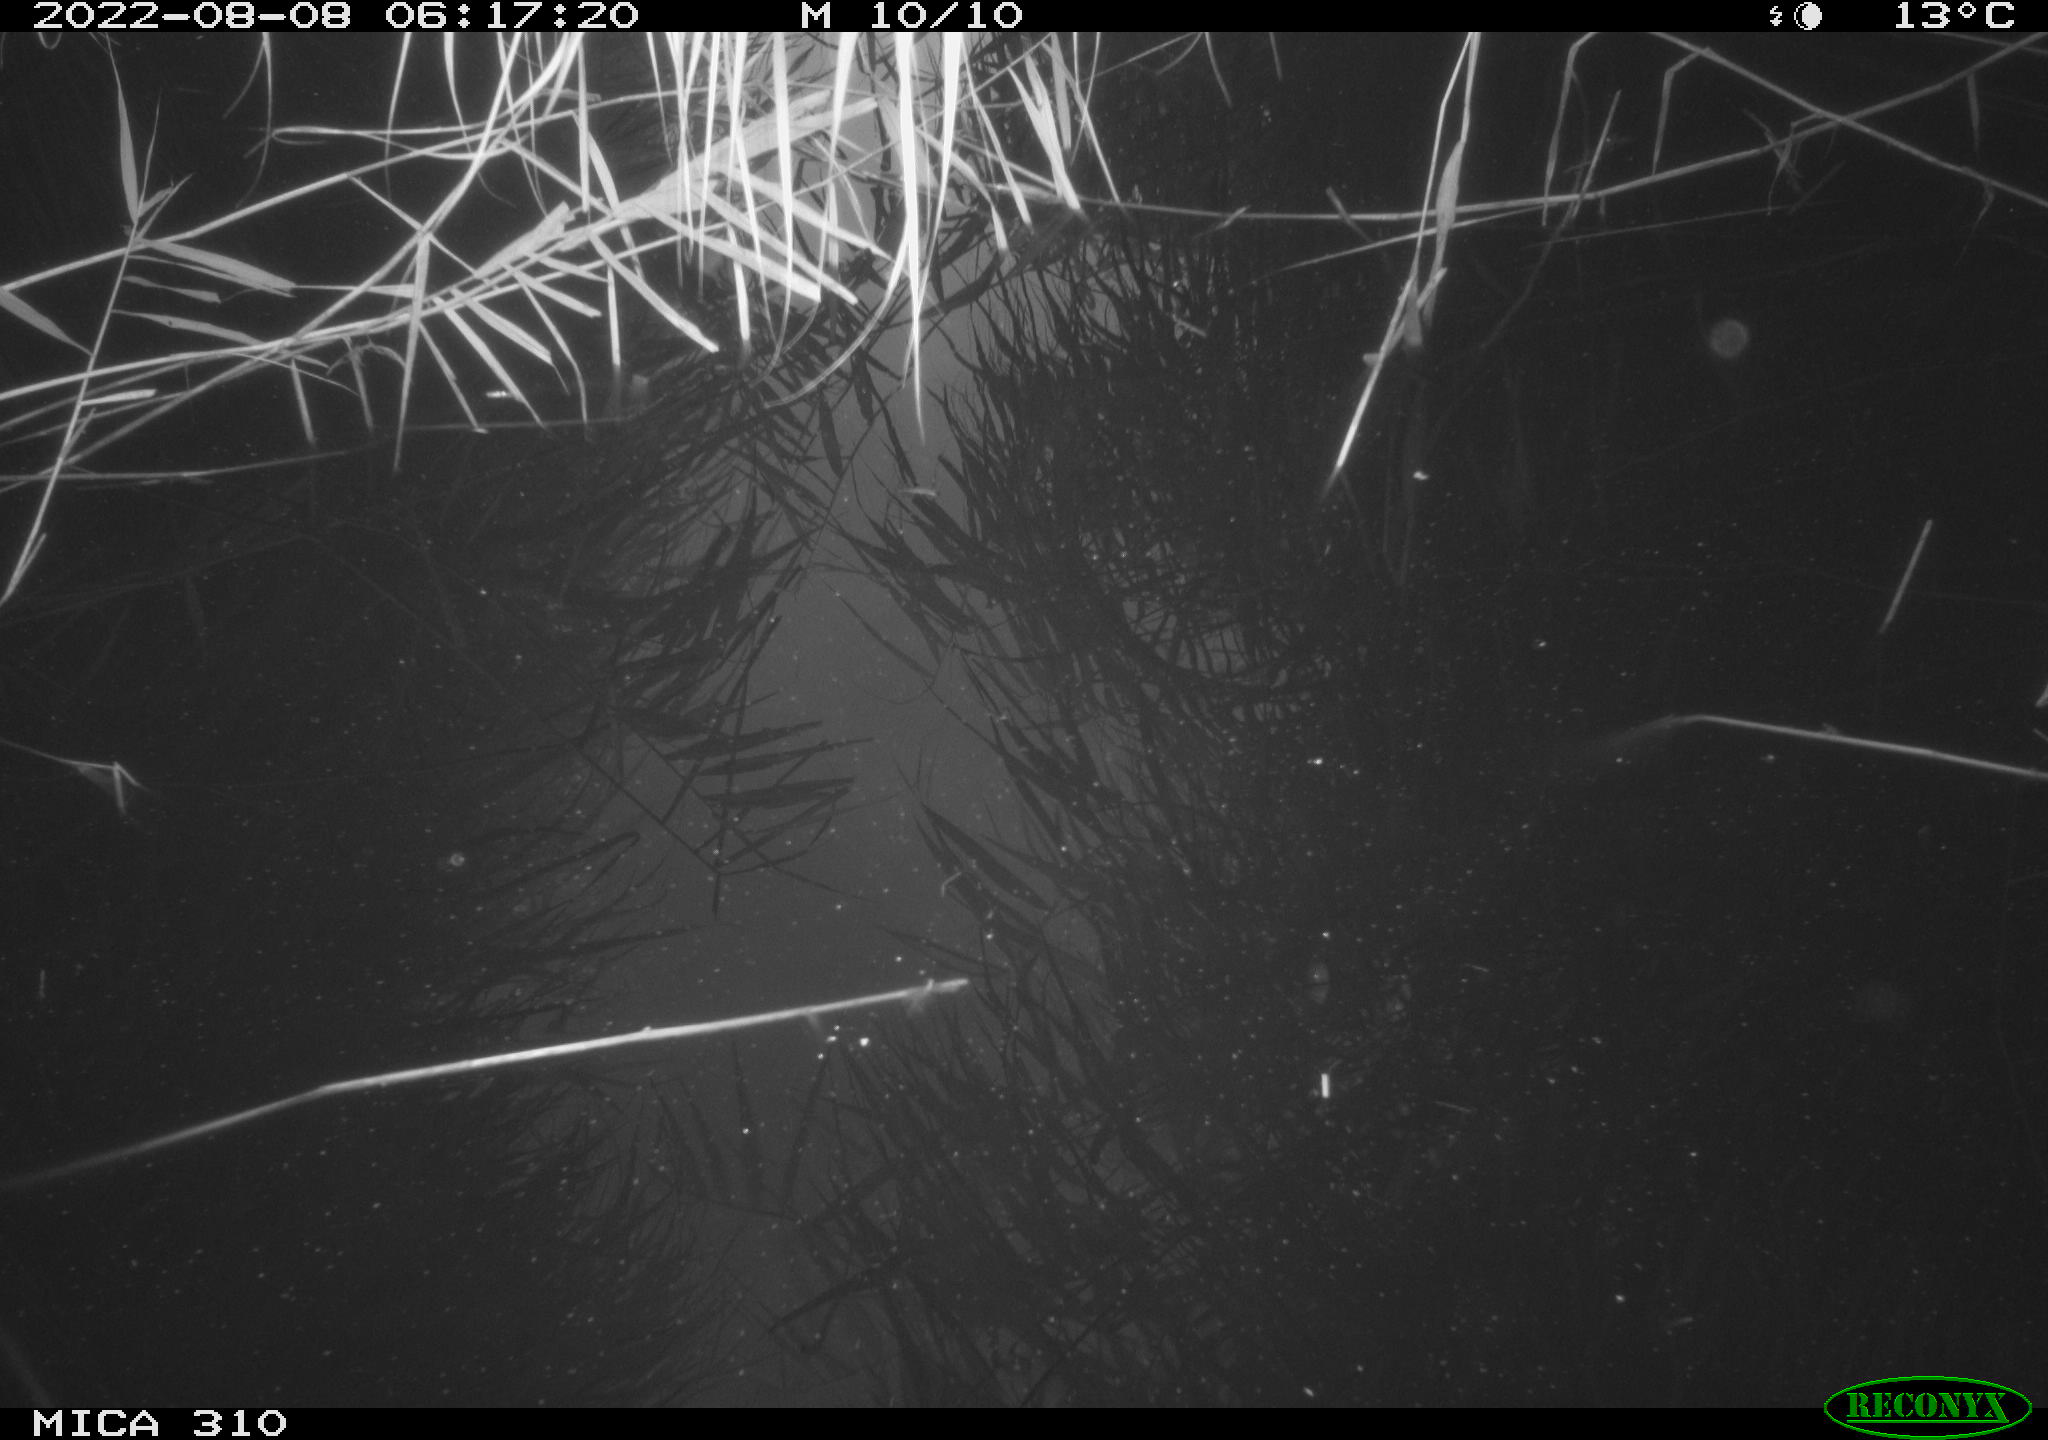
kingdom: Animalia
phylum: Chordata
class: Aves
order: Gruiformes
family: Rallidae
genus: Fulica
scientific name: Fulica atra
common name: Eurasian coot
